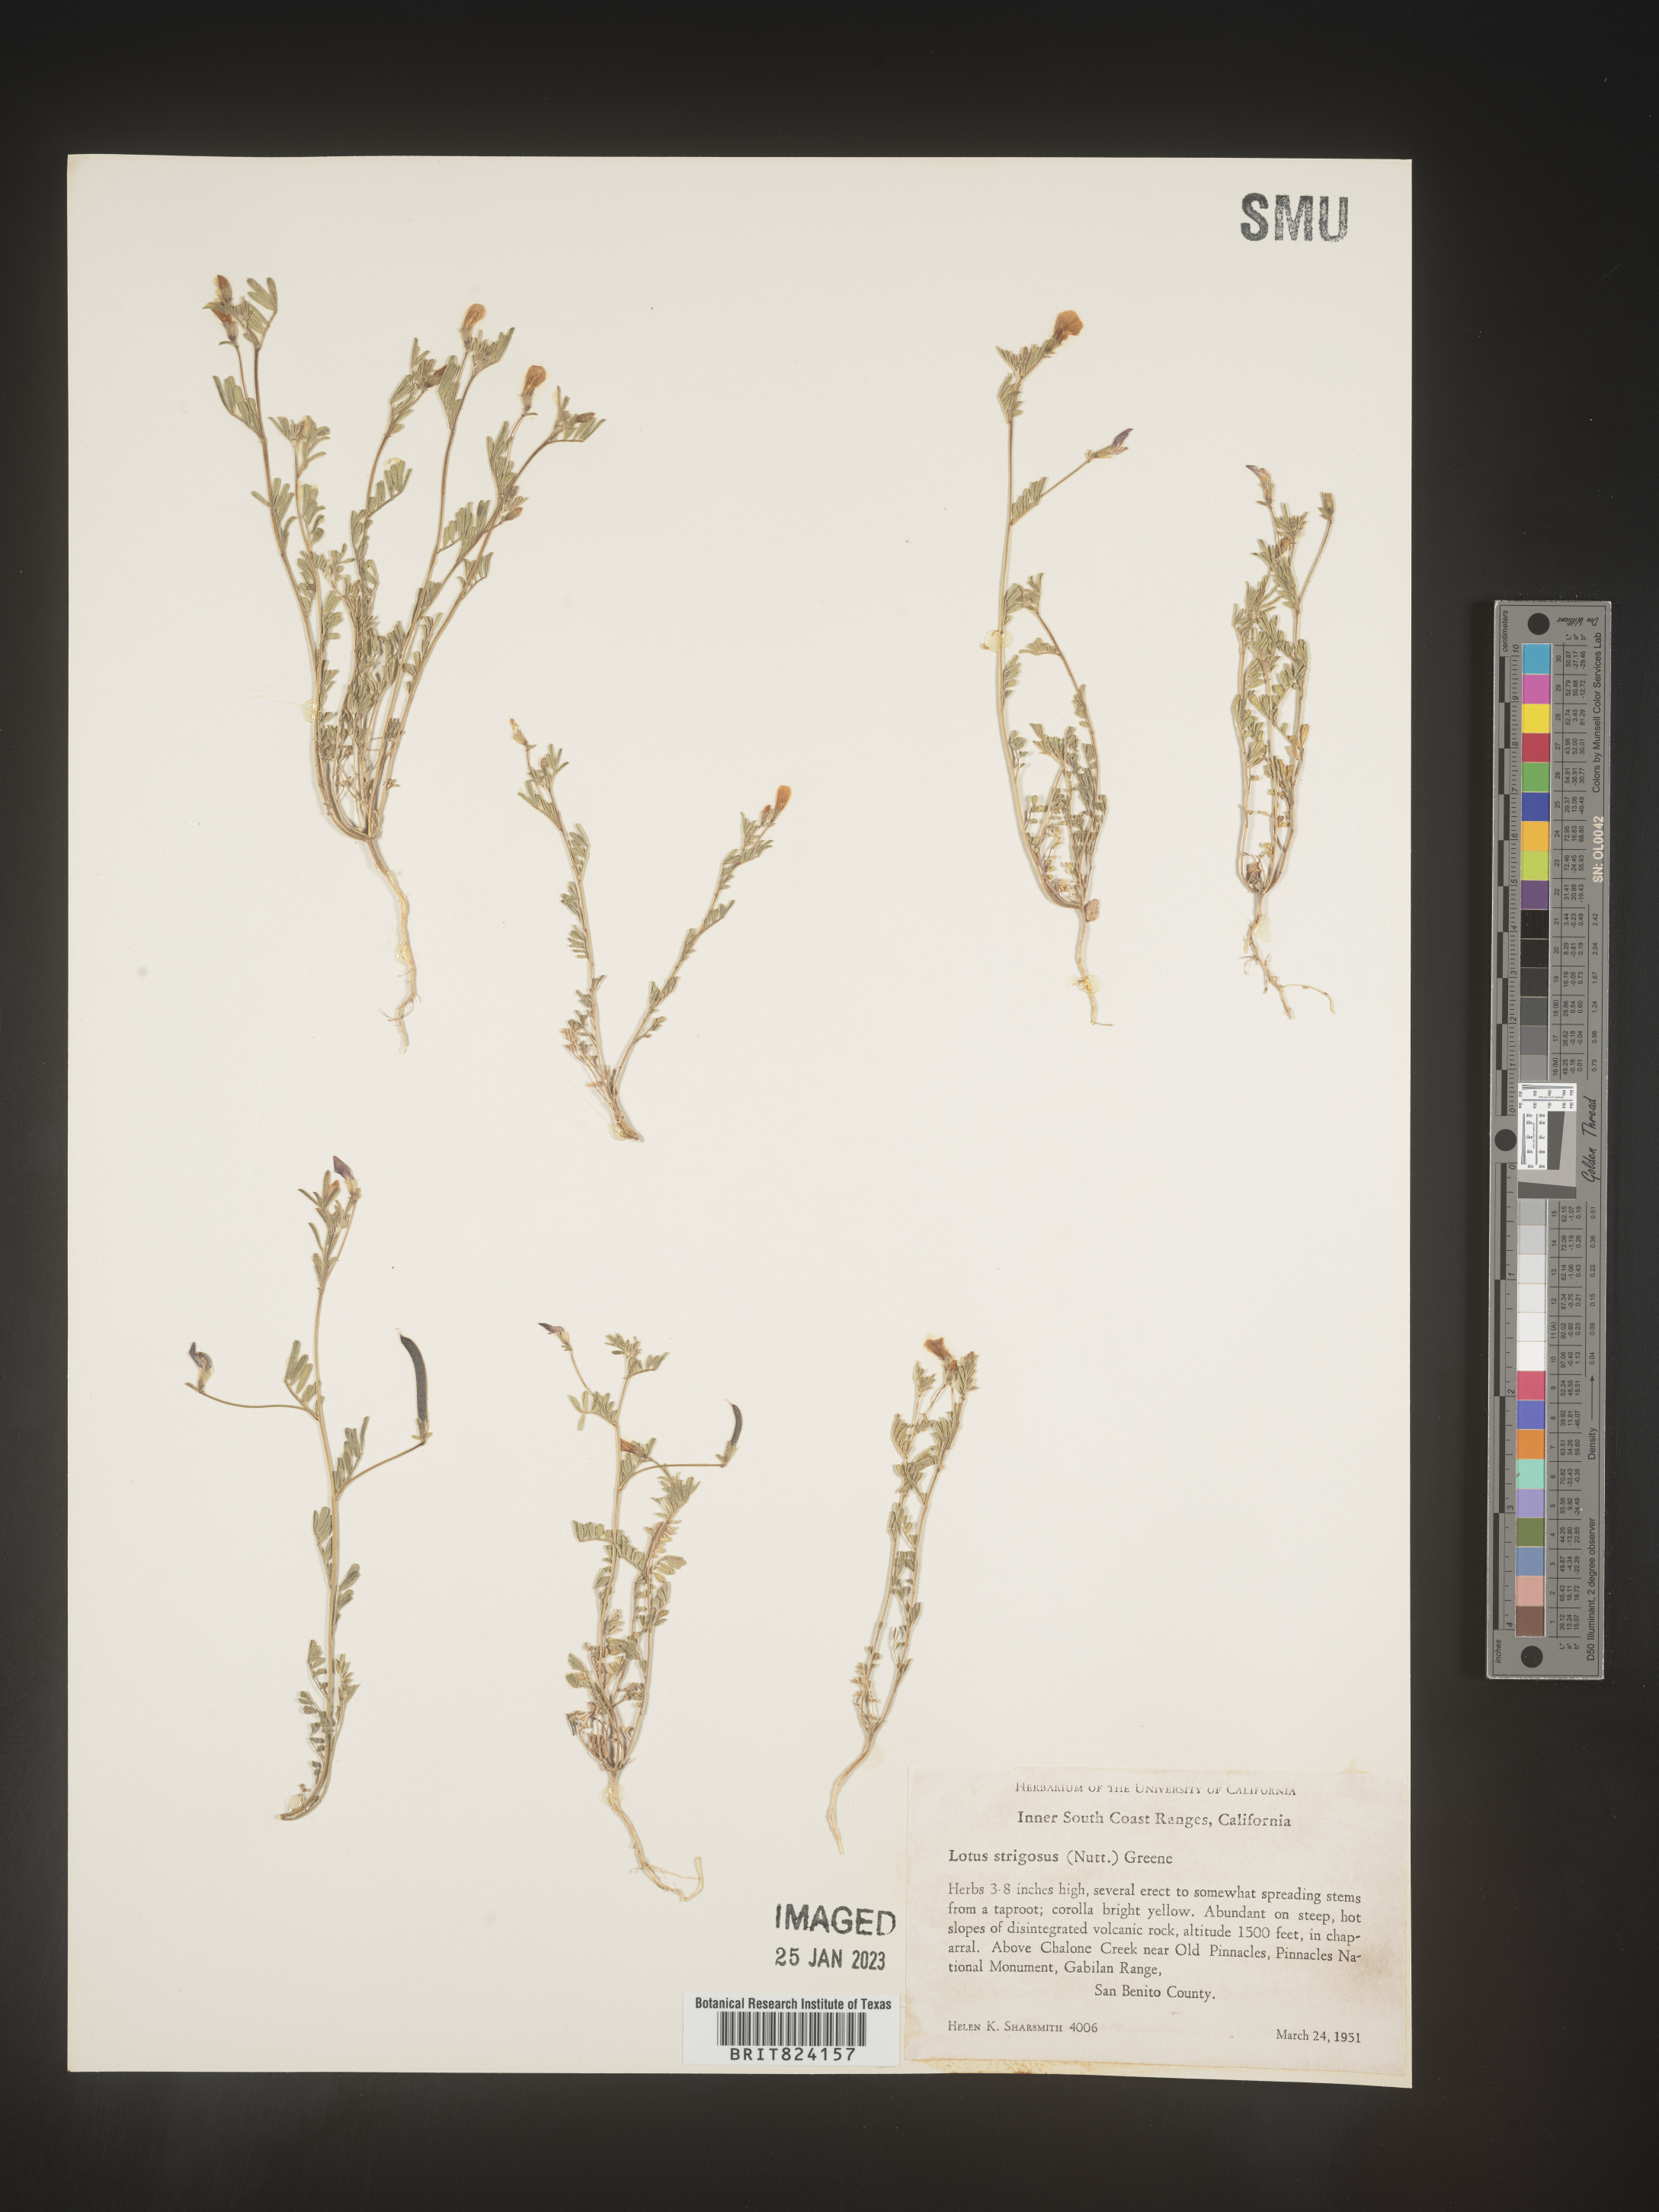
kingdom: Plantae
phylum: Tracheophyta
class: Magnoliopsida
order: Fabales
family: Fabaceae
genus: Lotus
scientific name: Lotus
